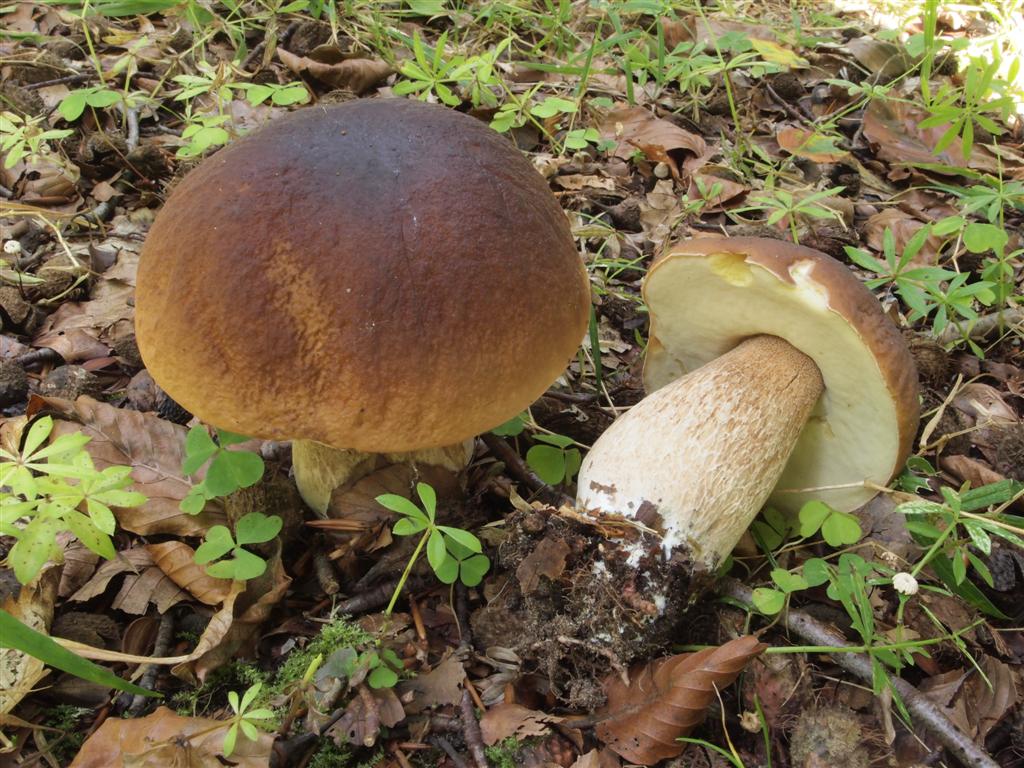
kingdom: Fungi
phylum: Basidiomycota
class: Agaricomycetes
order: Boletales
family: Boletaceae
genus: Boletus
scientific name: Boletus edulis
